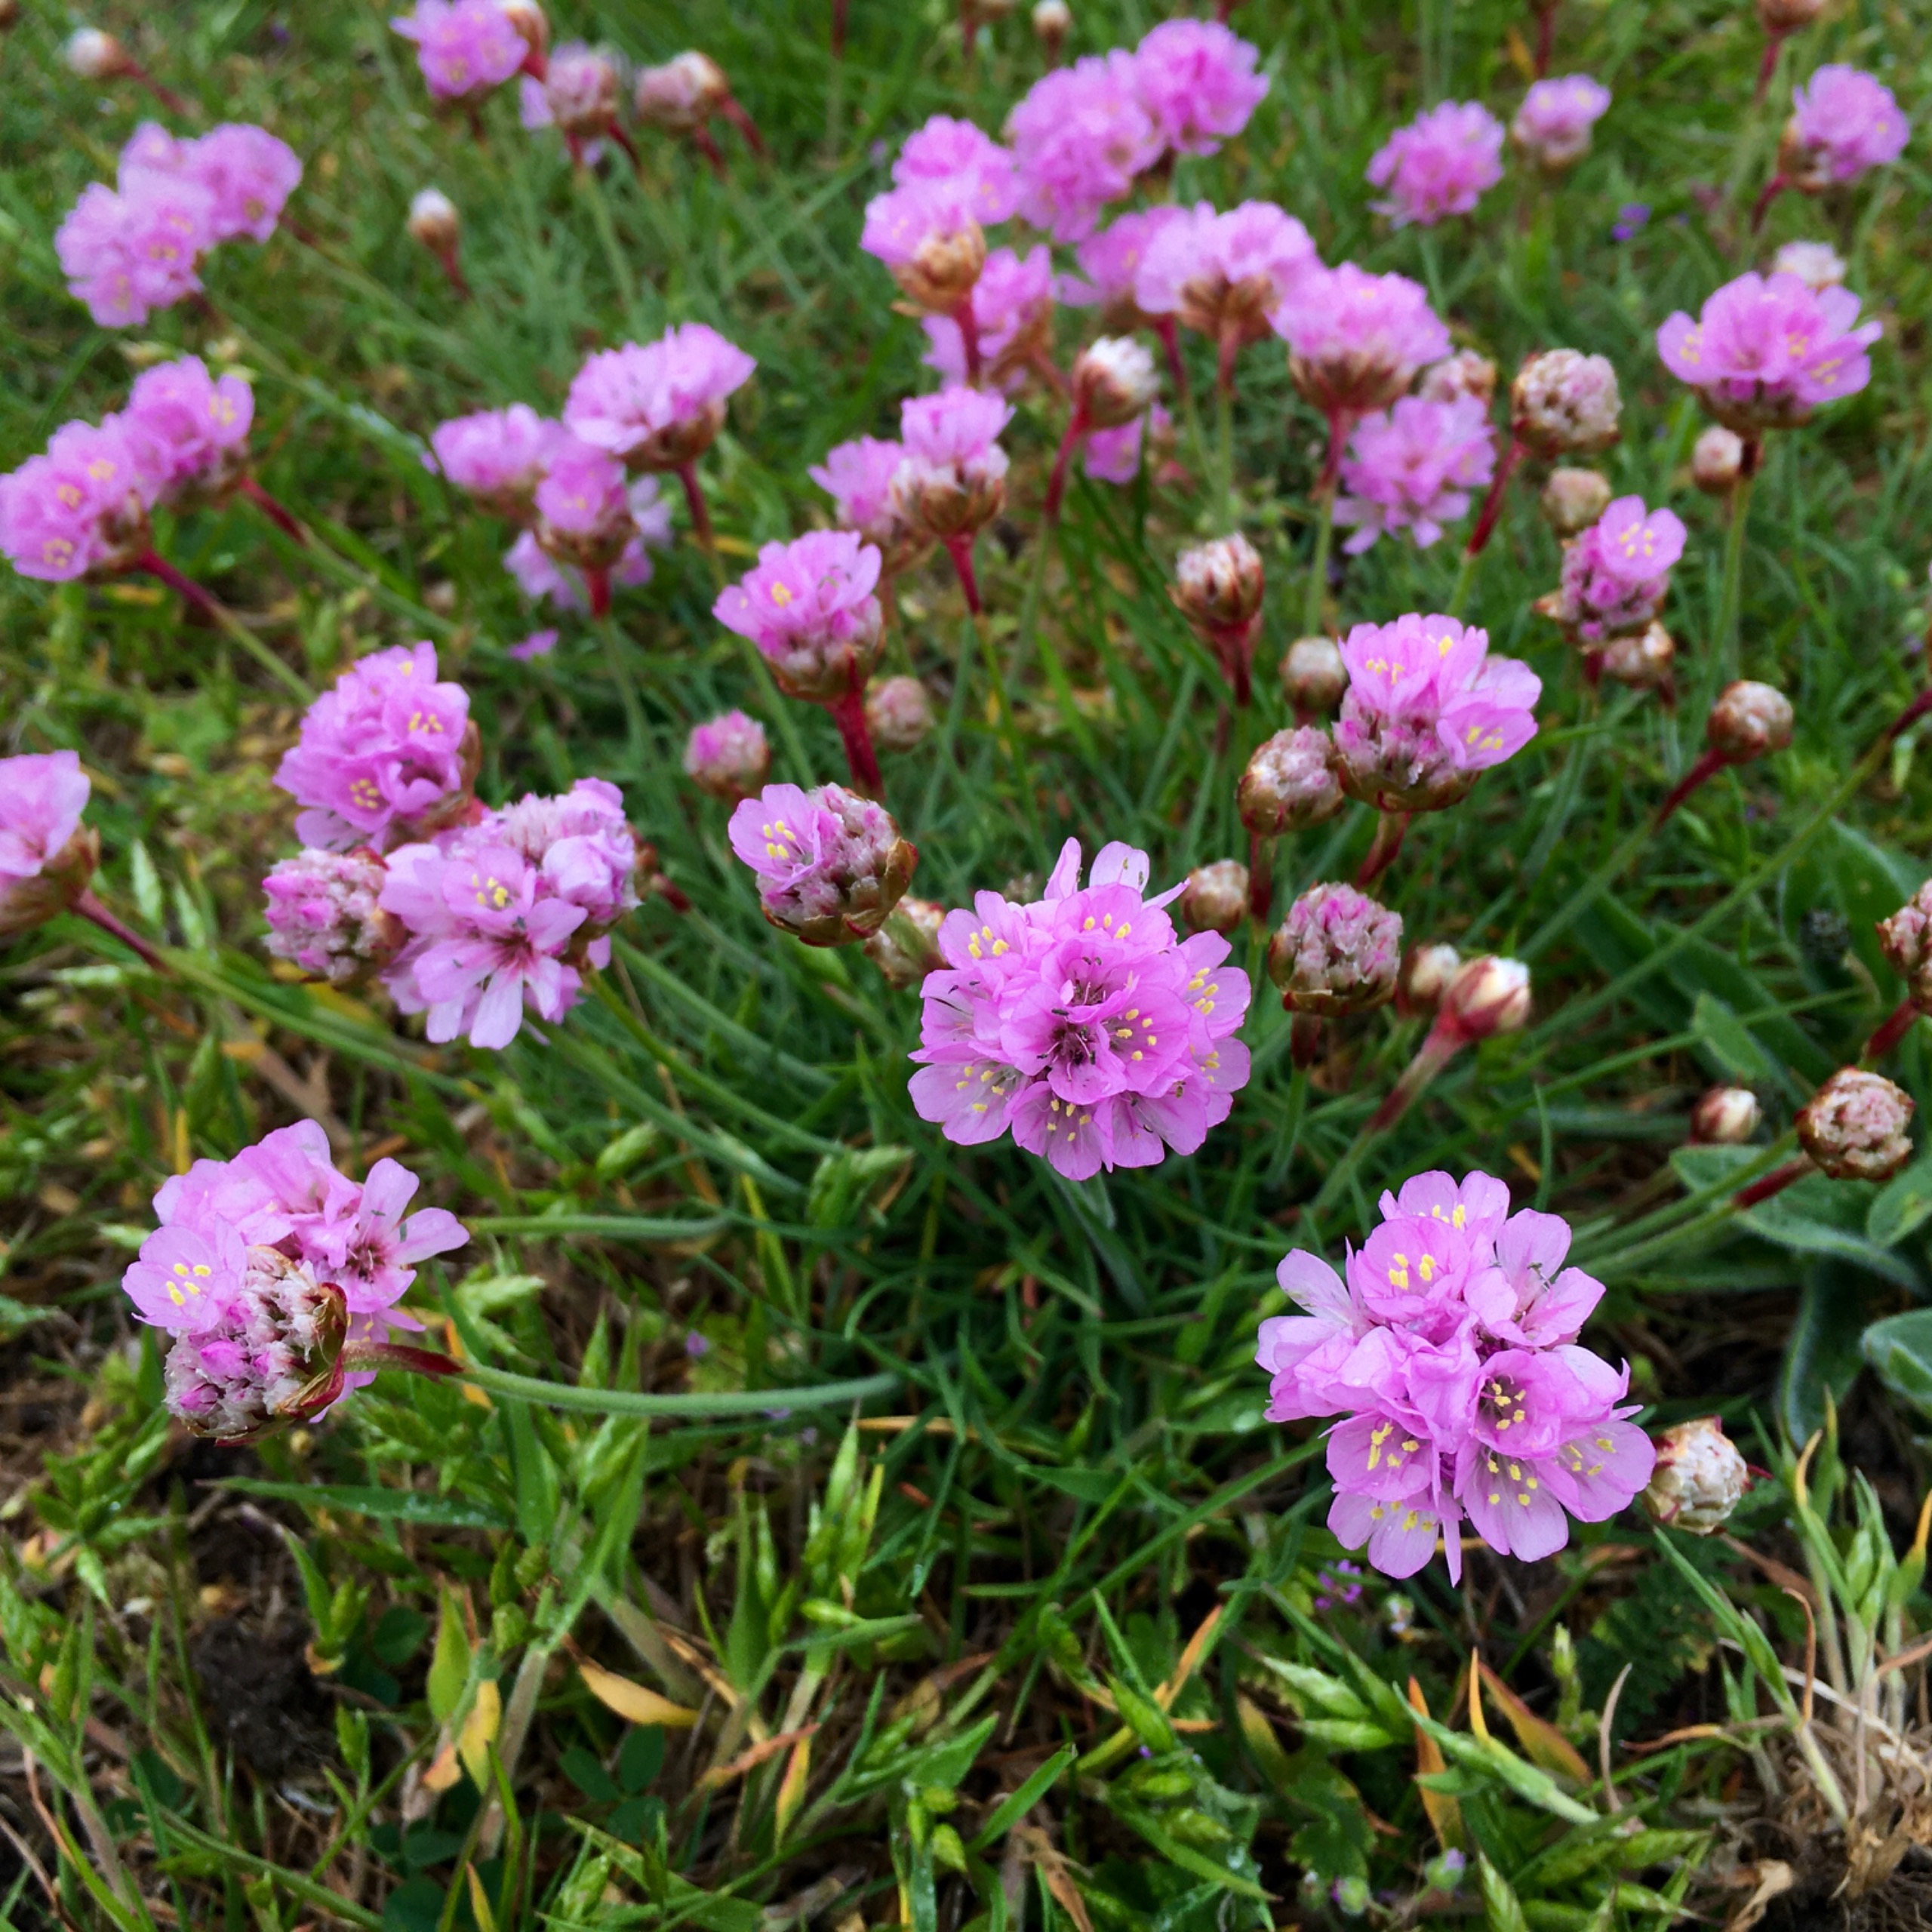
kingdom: Plantae
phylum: Tracheophyta
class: Magnoliopsida
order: Caryophyllales
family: Plumbaginaceae
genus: Armeria
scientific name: Armeria maritima
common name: Engelskgræs
